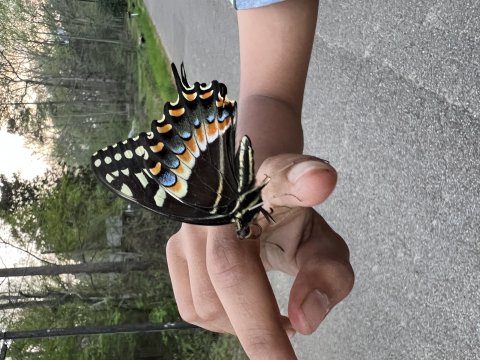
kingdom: Animalia
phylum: Arthropoda
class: Insecta
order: Lepidoptera
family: Papilionidae
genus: Pterourus
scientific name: Pterourus palamedes
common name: Palamedes Swallowtail
